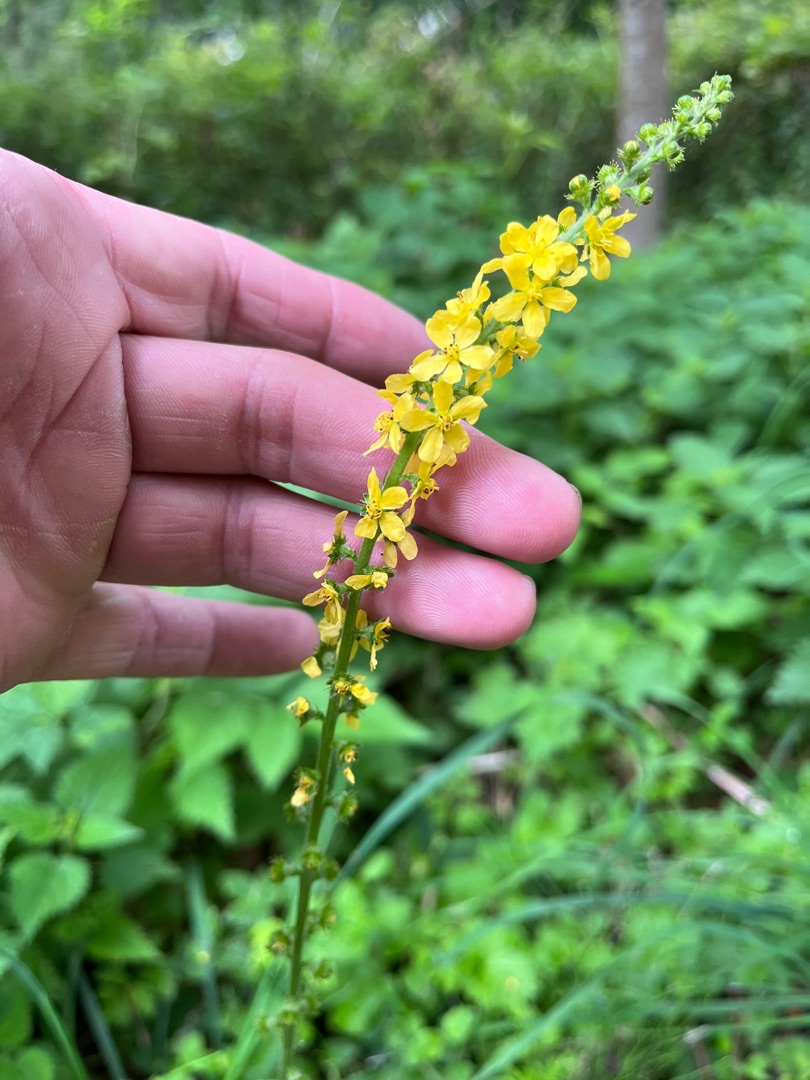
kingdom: Plantae
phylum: Tracheophyta
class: Magnoliopsida
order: Rosales
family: Rosaceae
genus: Agrimonia
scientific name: Agrimonia eupatoria
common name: Almindelig agermåne
